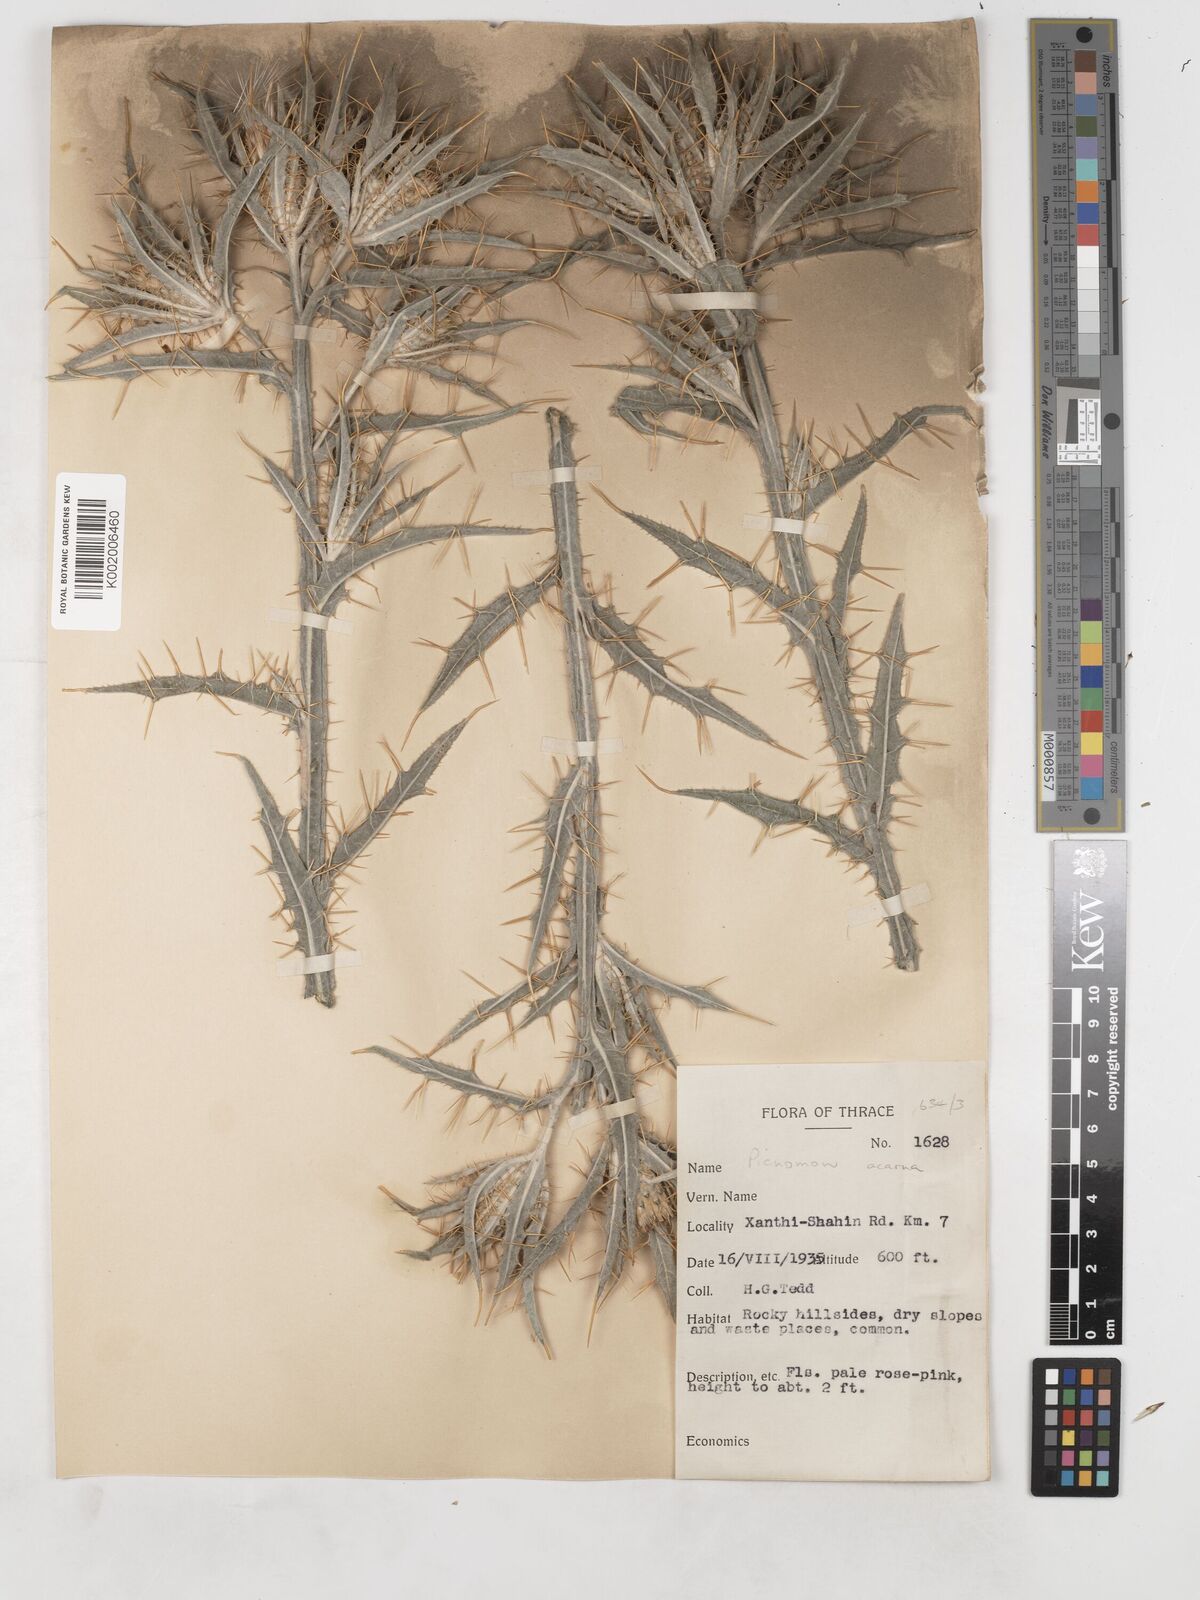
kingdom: Plantae
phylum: Tracheophyta
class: Magnoliopsida
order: Asterales
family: Asteraceae
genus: Picnomon
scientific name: Picnomon acarna
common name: Soldier thistle
